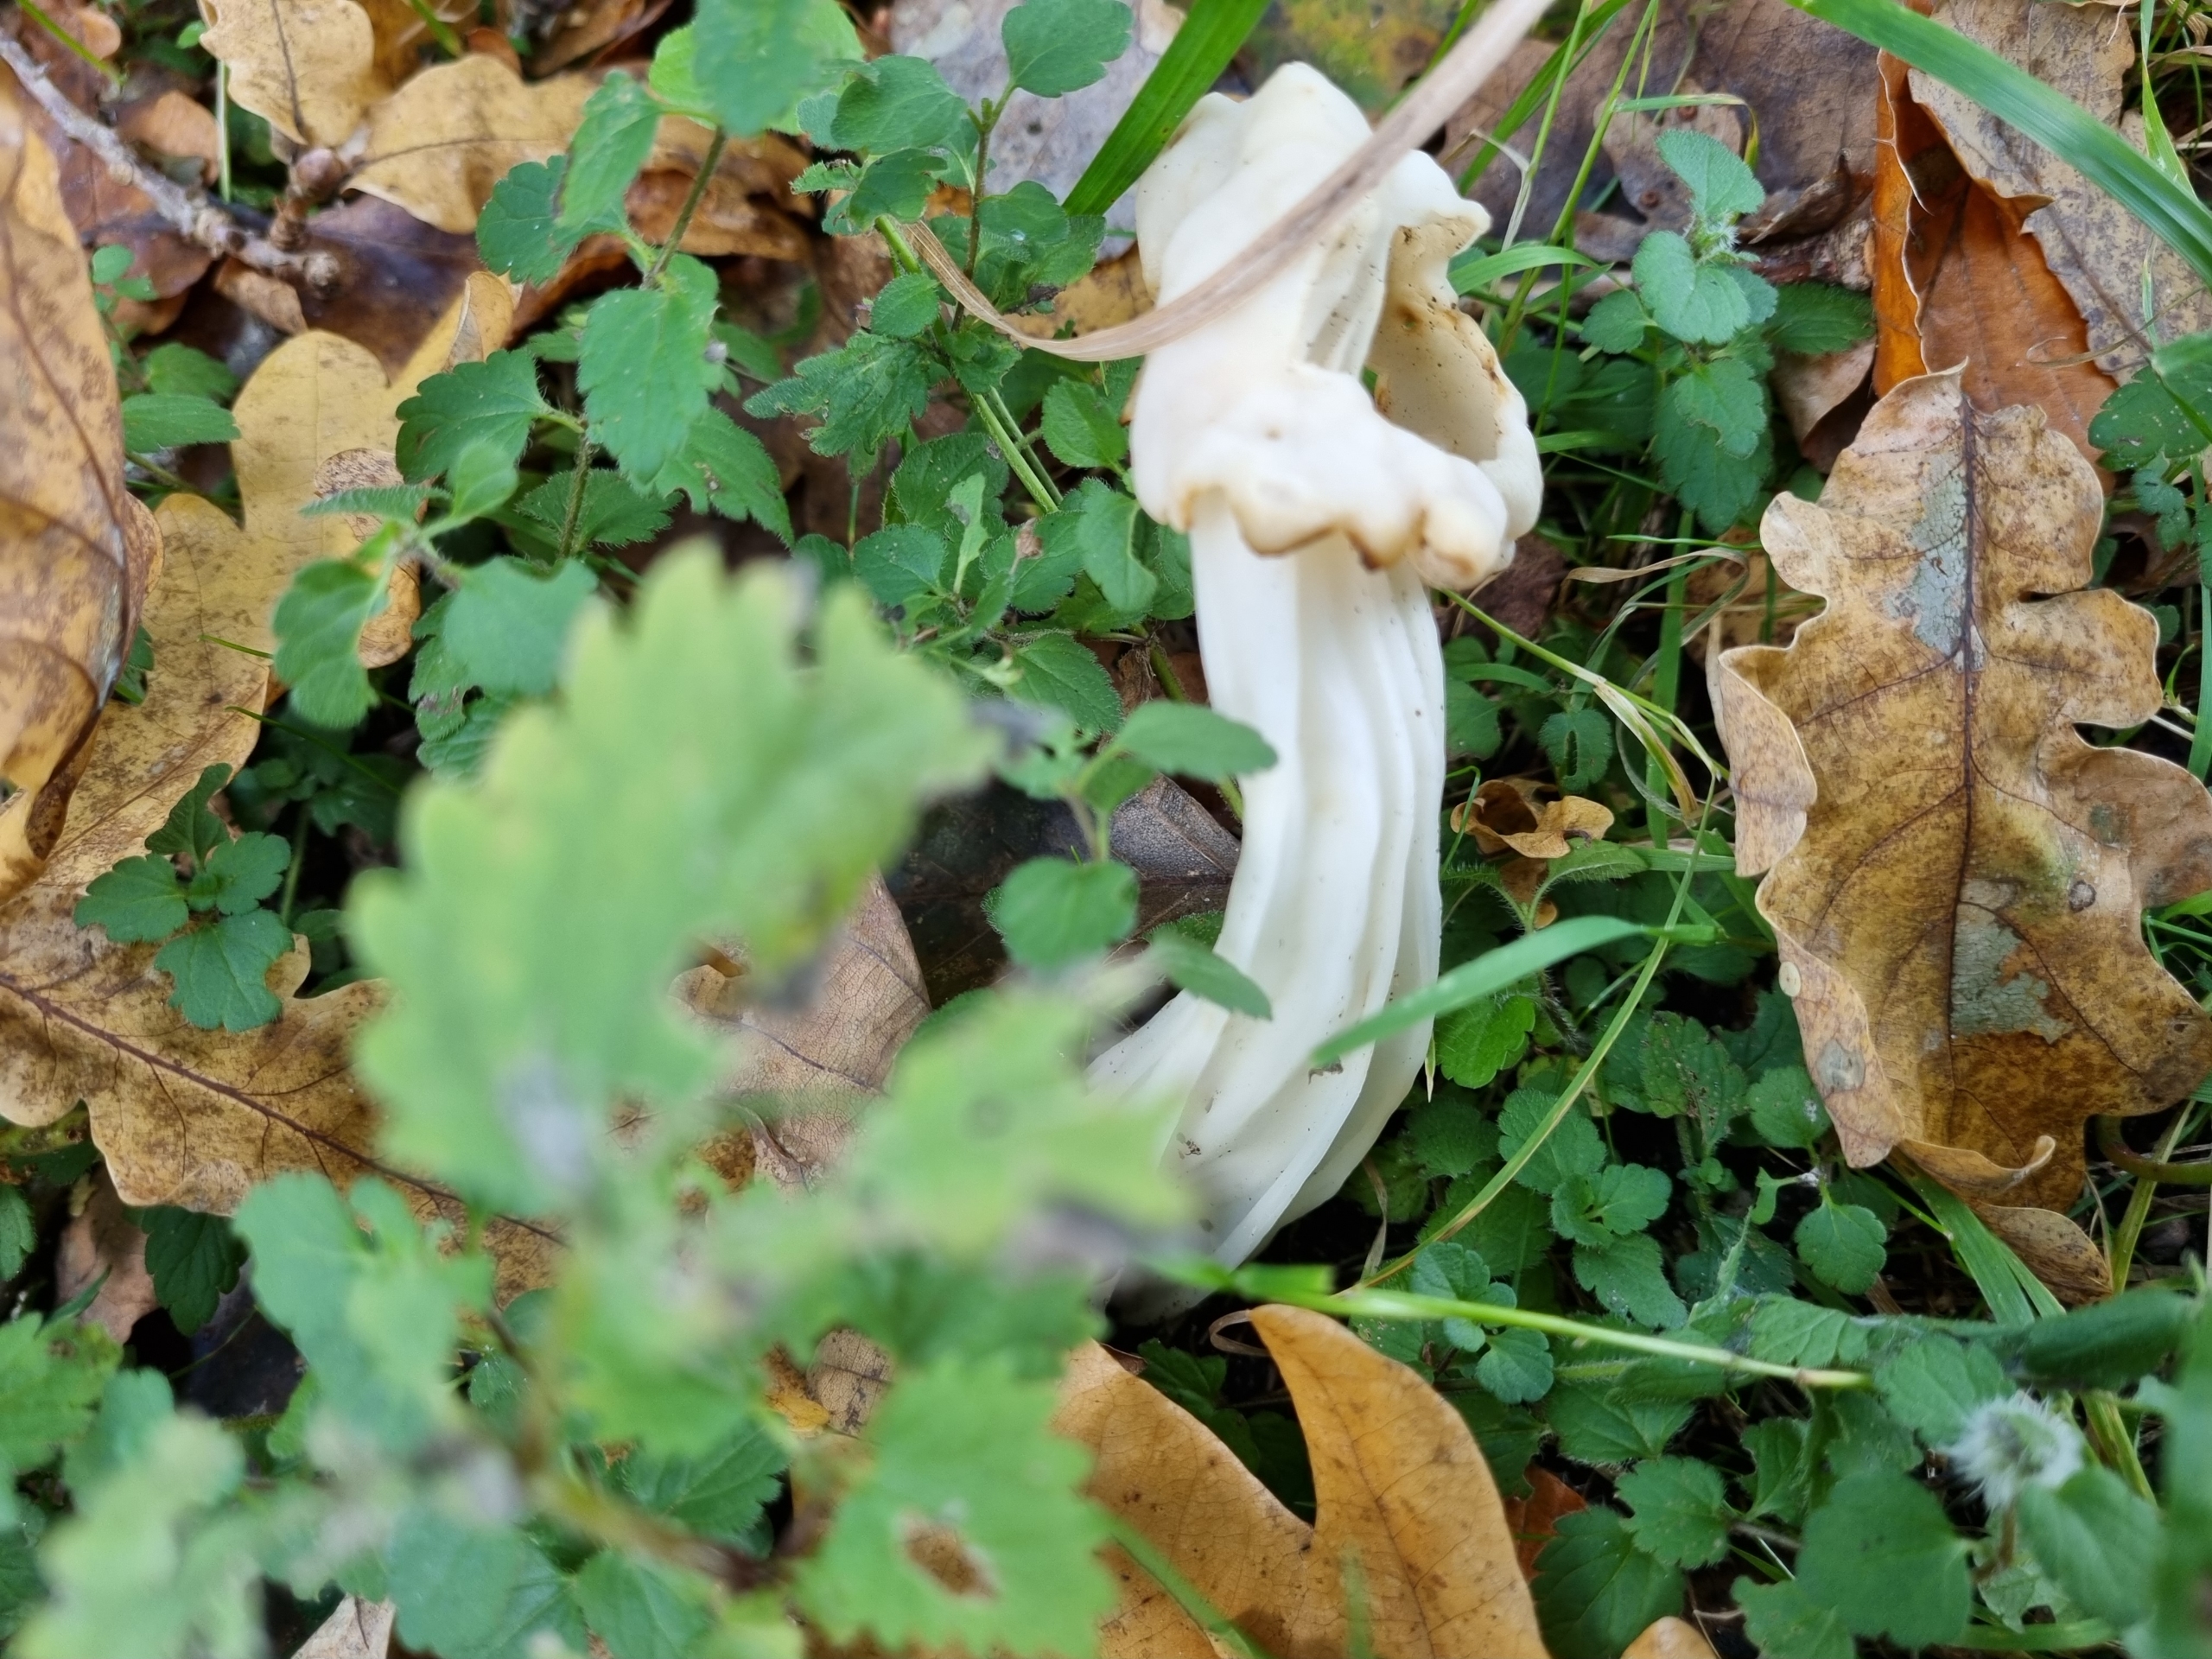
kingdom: Fungi
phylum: Ascomycota
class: Pezizomycetes
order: Pezizales
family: Helvellaceae
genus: Helvella
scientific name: Helvella crispa
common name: Kruset foldhat
